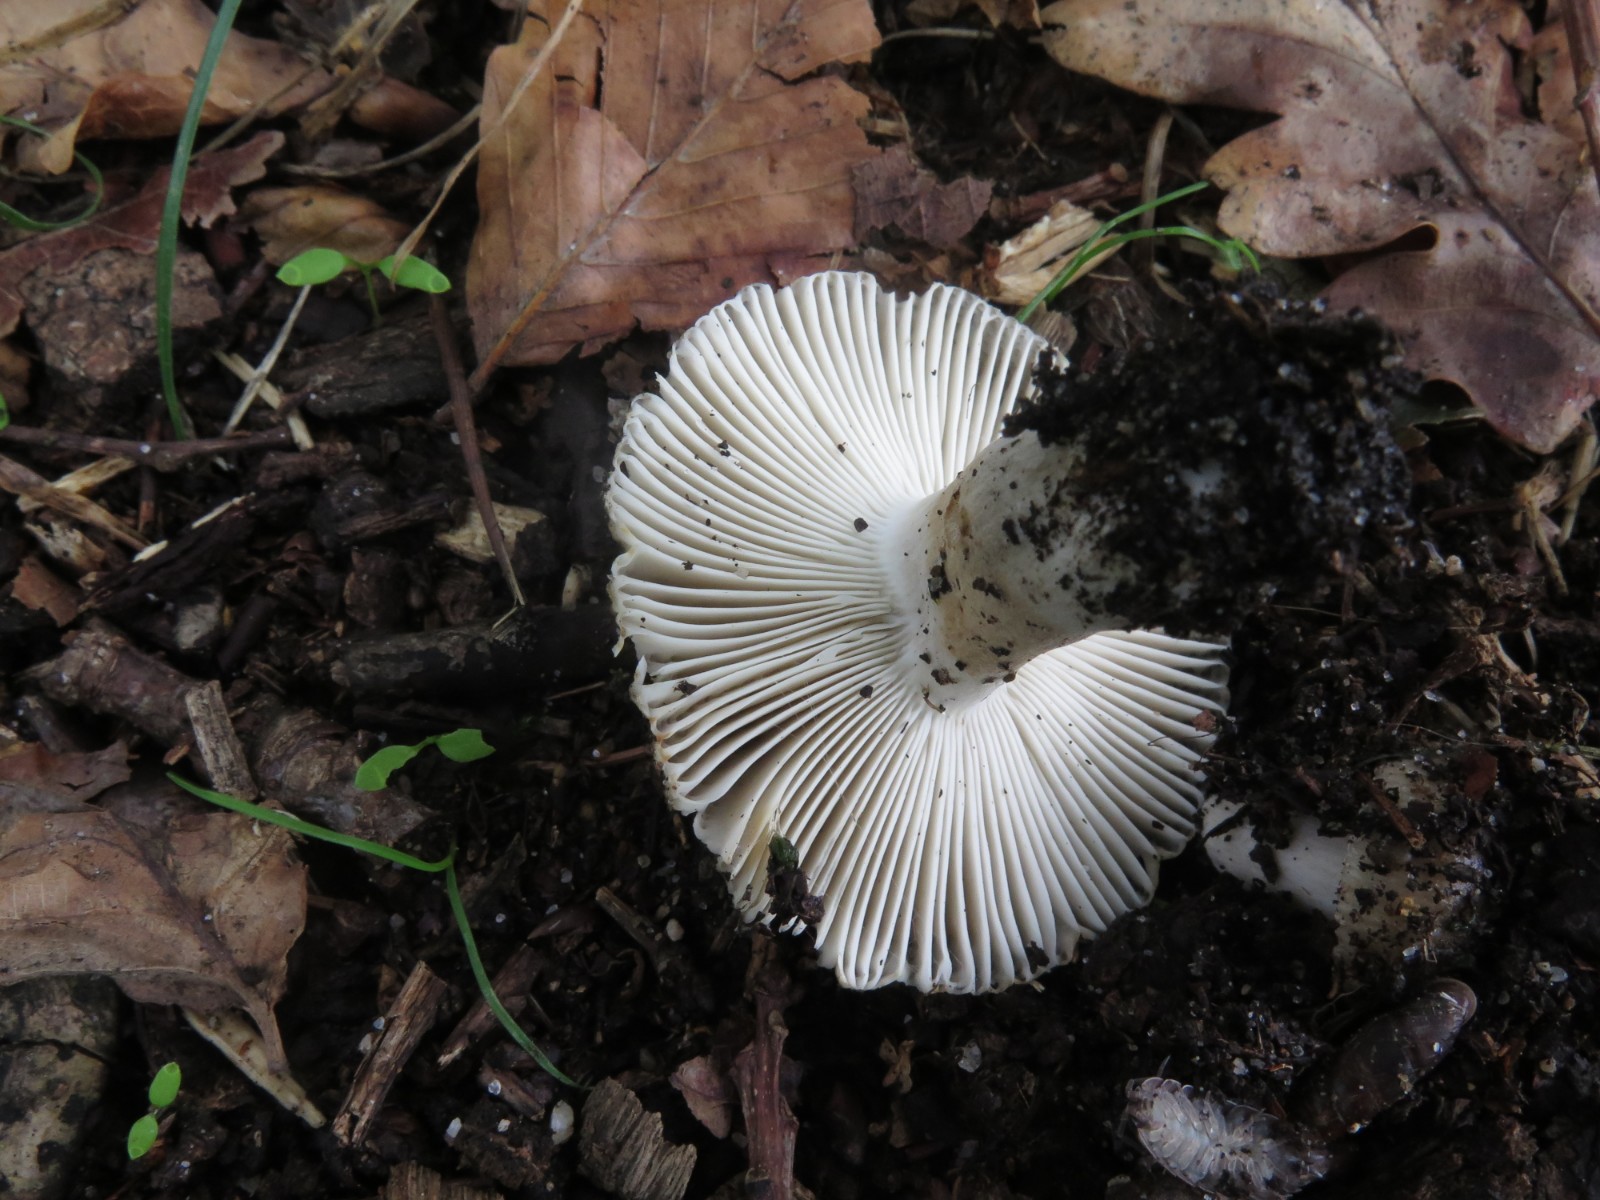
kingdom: Fungi
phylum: Basidiomycota
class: Agaricomycetes
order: Russulales
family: Russulaceae
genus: Russula
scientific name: Russula amoenolens
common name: skarp kam-skørhat
